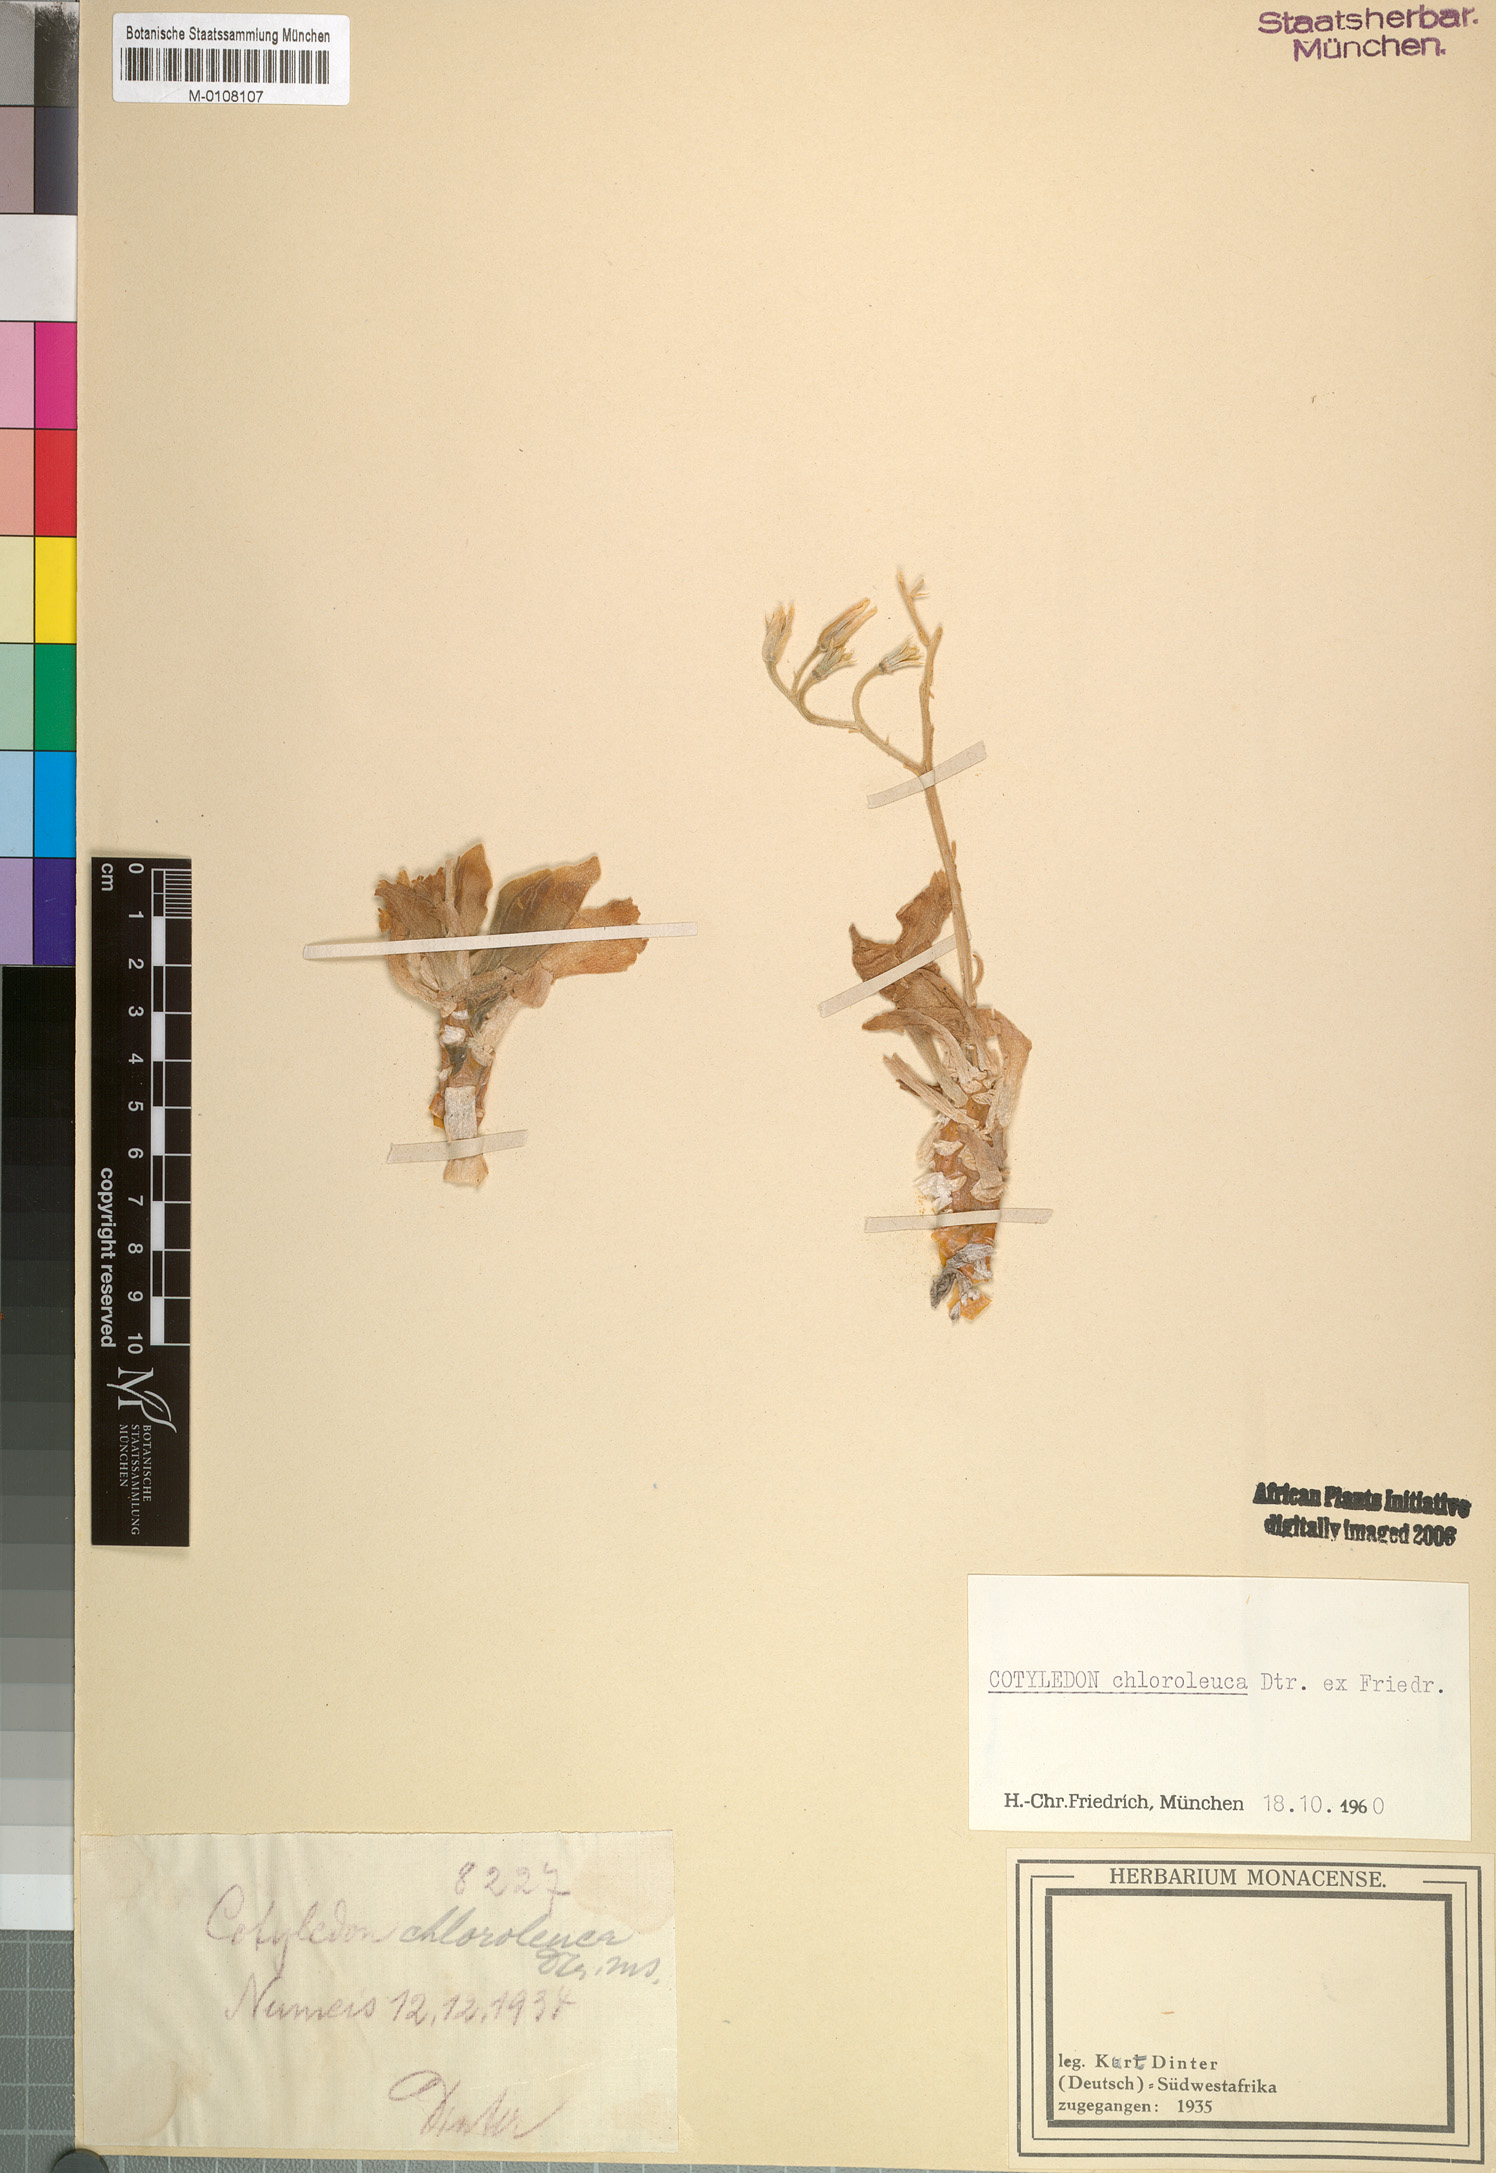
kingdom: Plantae
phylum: Tracheophyta
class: Magnoliopsida
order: Saxifragales
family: Crassulaceae
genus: Tylecodon
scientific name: Tylecodon racemosus
